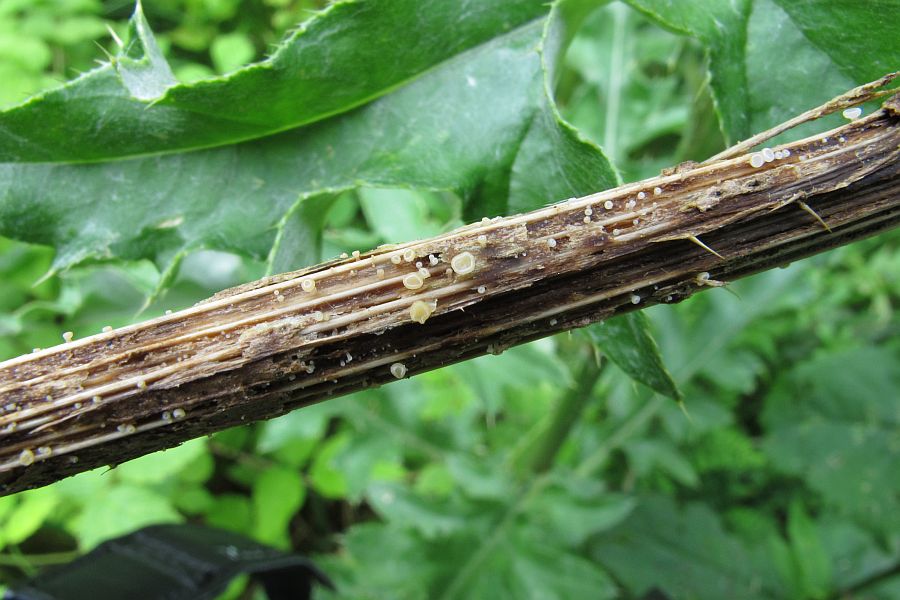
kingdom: Fungi
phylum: Ascomycota
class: Leotiomycetes
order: Helotiales
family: Helotiaceae
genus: Cyathicula
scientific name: Cyathicula cyathoidea
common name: pokal-stilkskive
